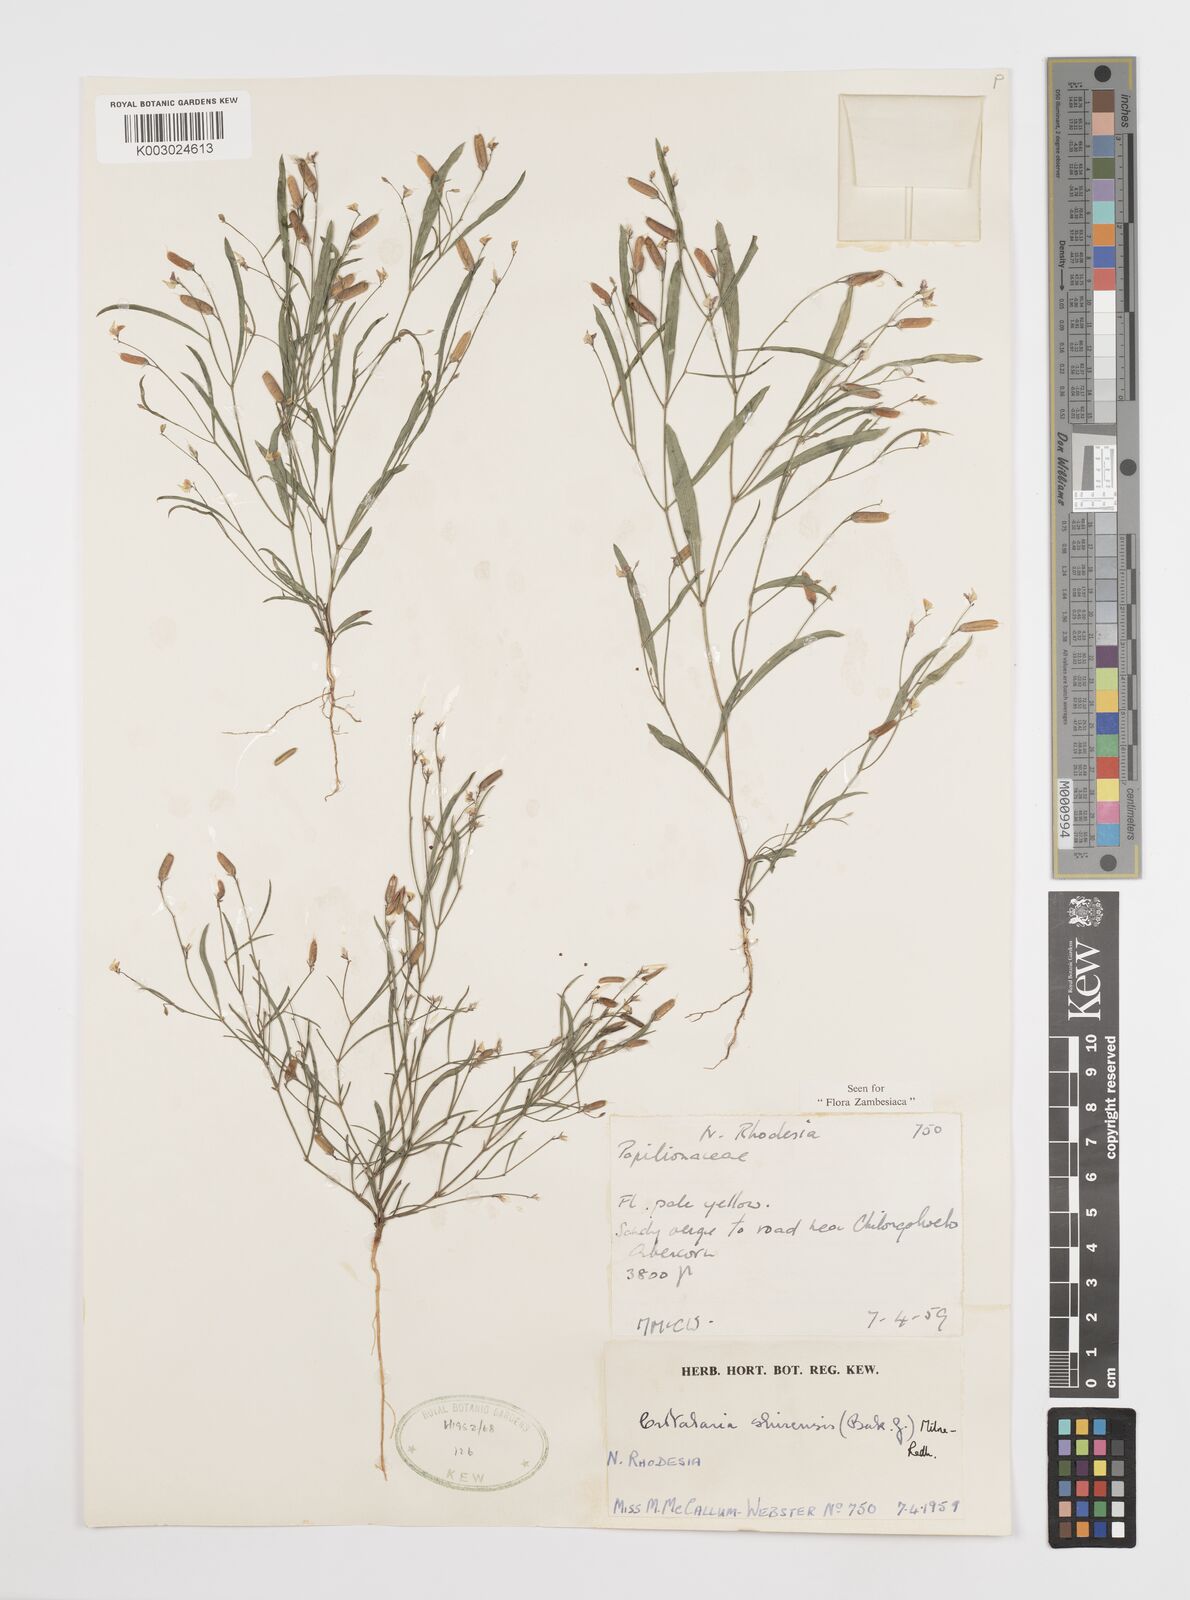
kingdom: Plantae
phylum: Tracheophyta
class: Magnoliopsida
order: Fabales
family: Fabaceae
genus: Crotalaria
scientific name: Crotalaria shirensis
